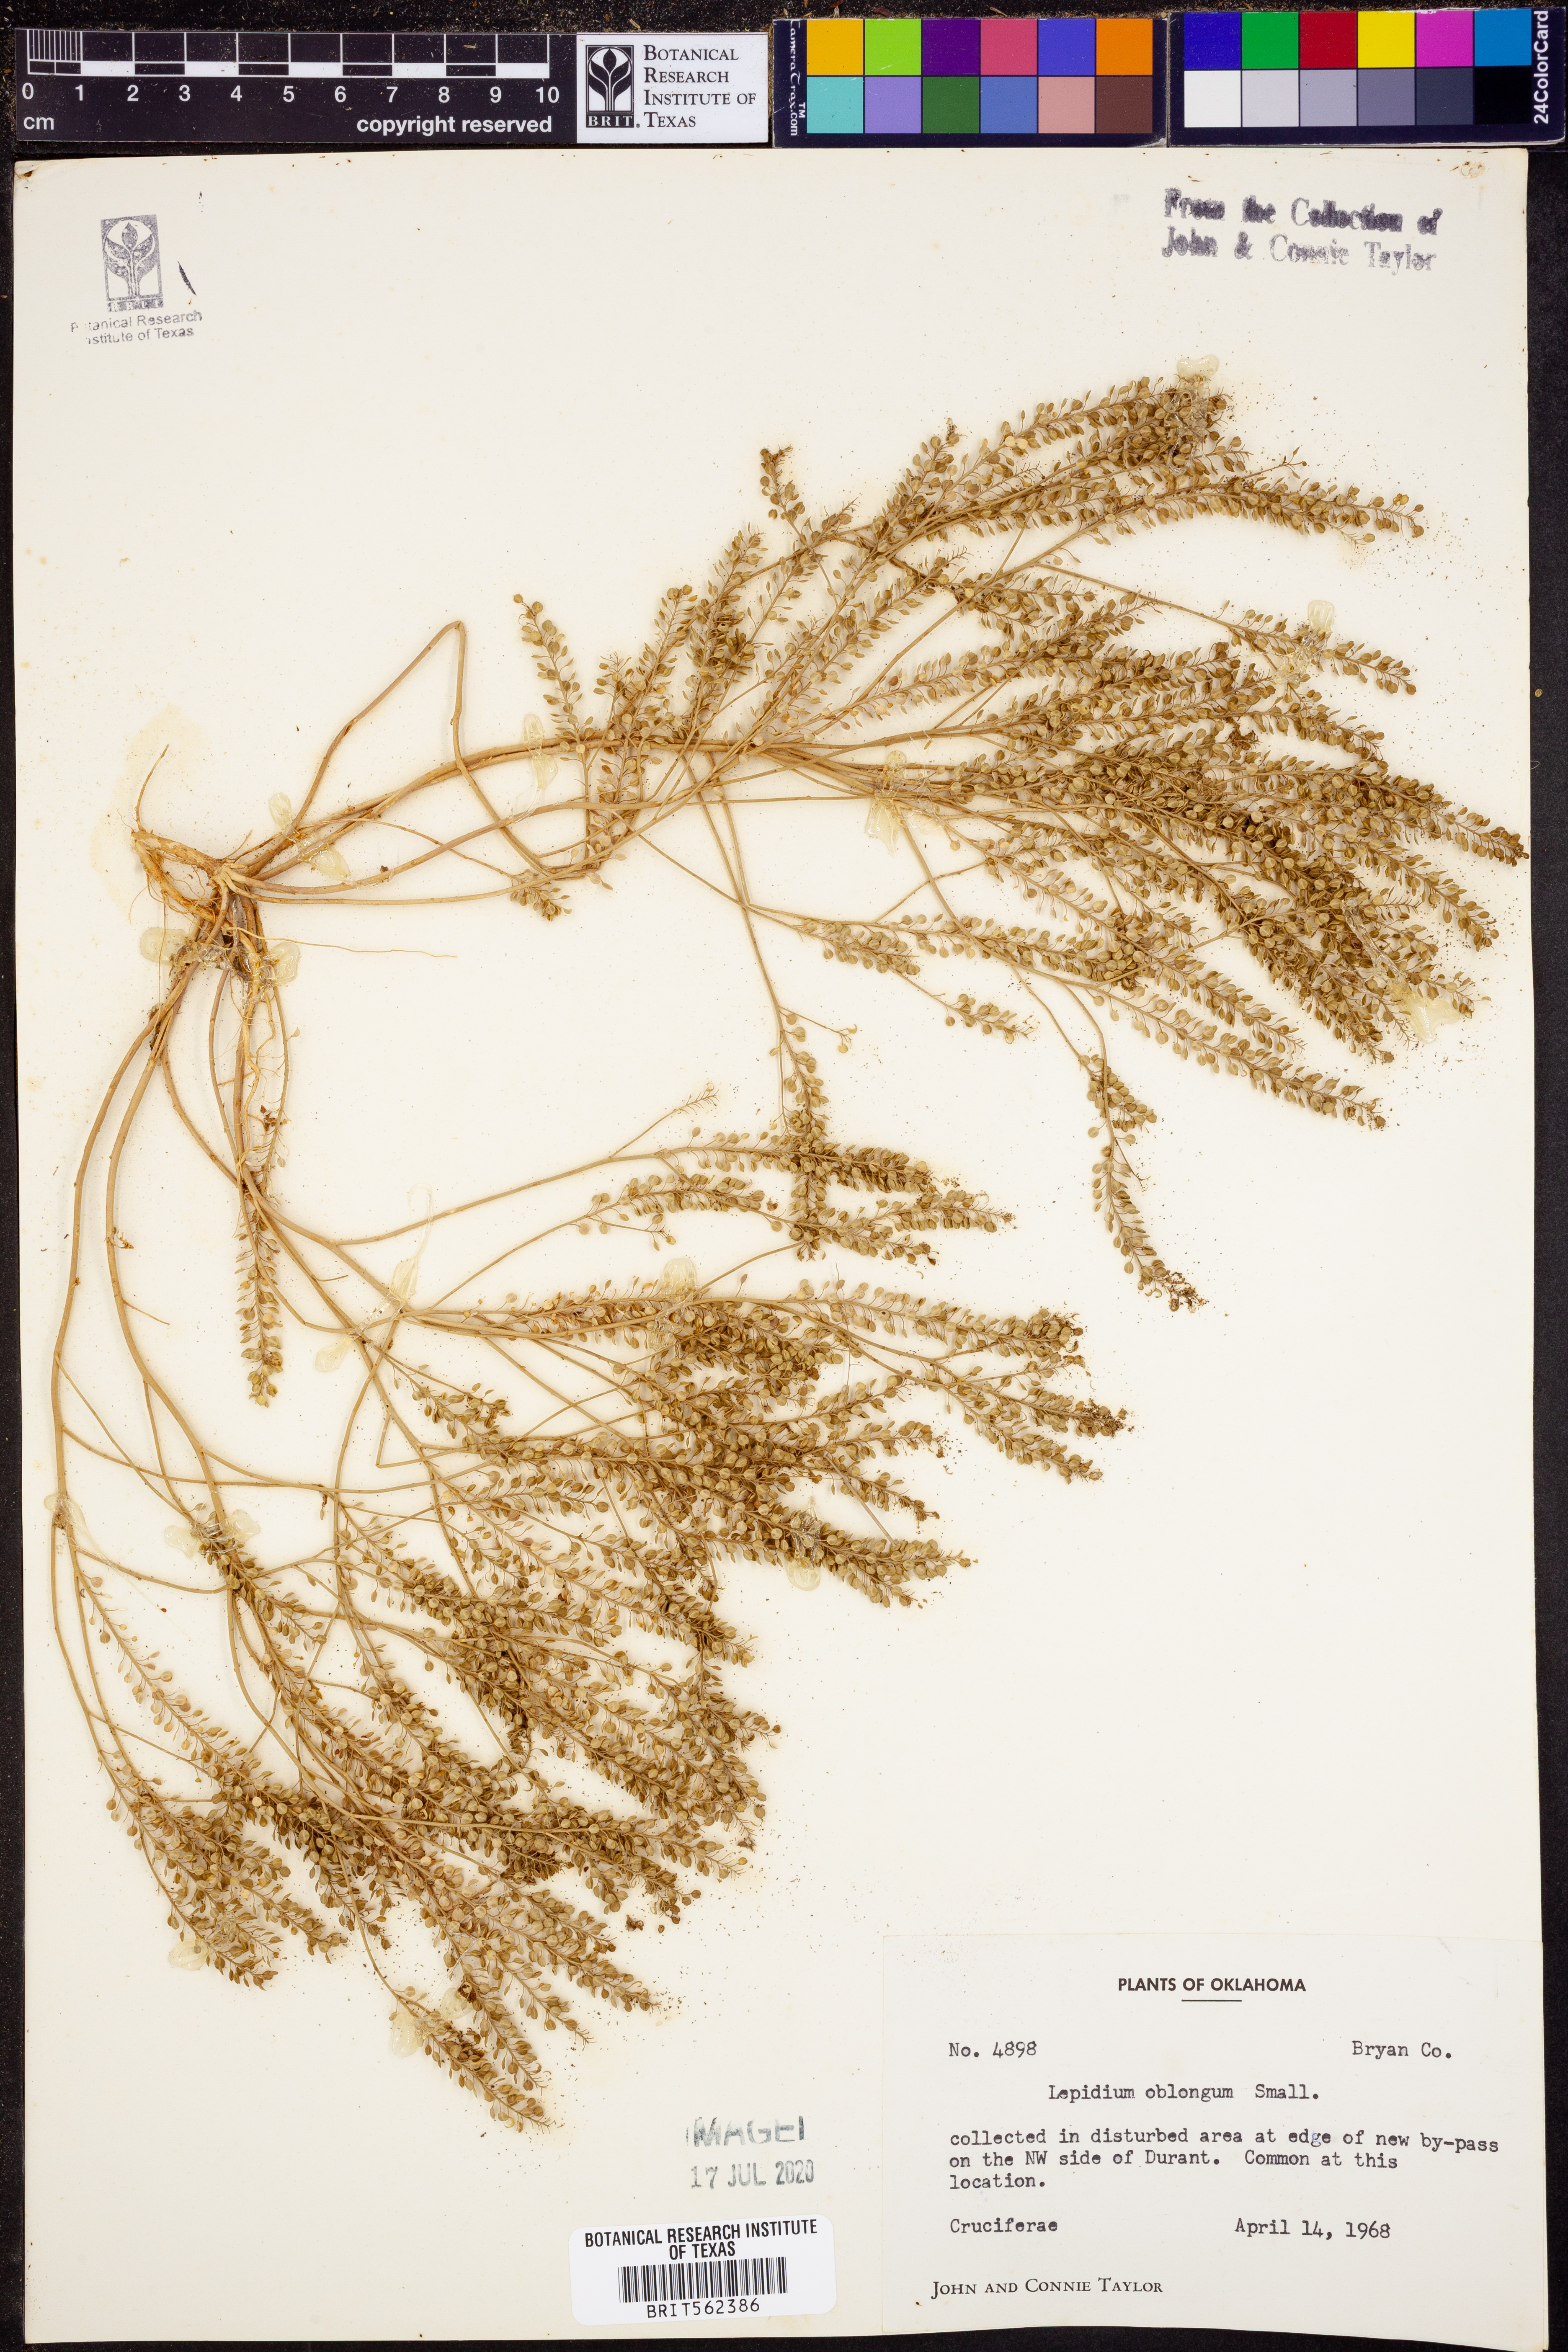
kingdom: Plantae
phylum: Tracheophyta
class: Magnoliopsida
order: Brassicales
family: Brassicaceae
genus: Lepidium
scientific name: Lepidium oblongum
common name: Veiny pepperweed
